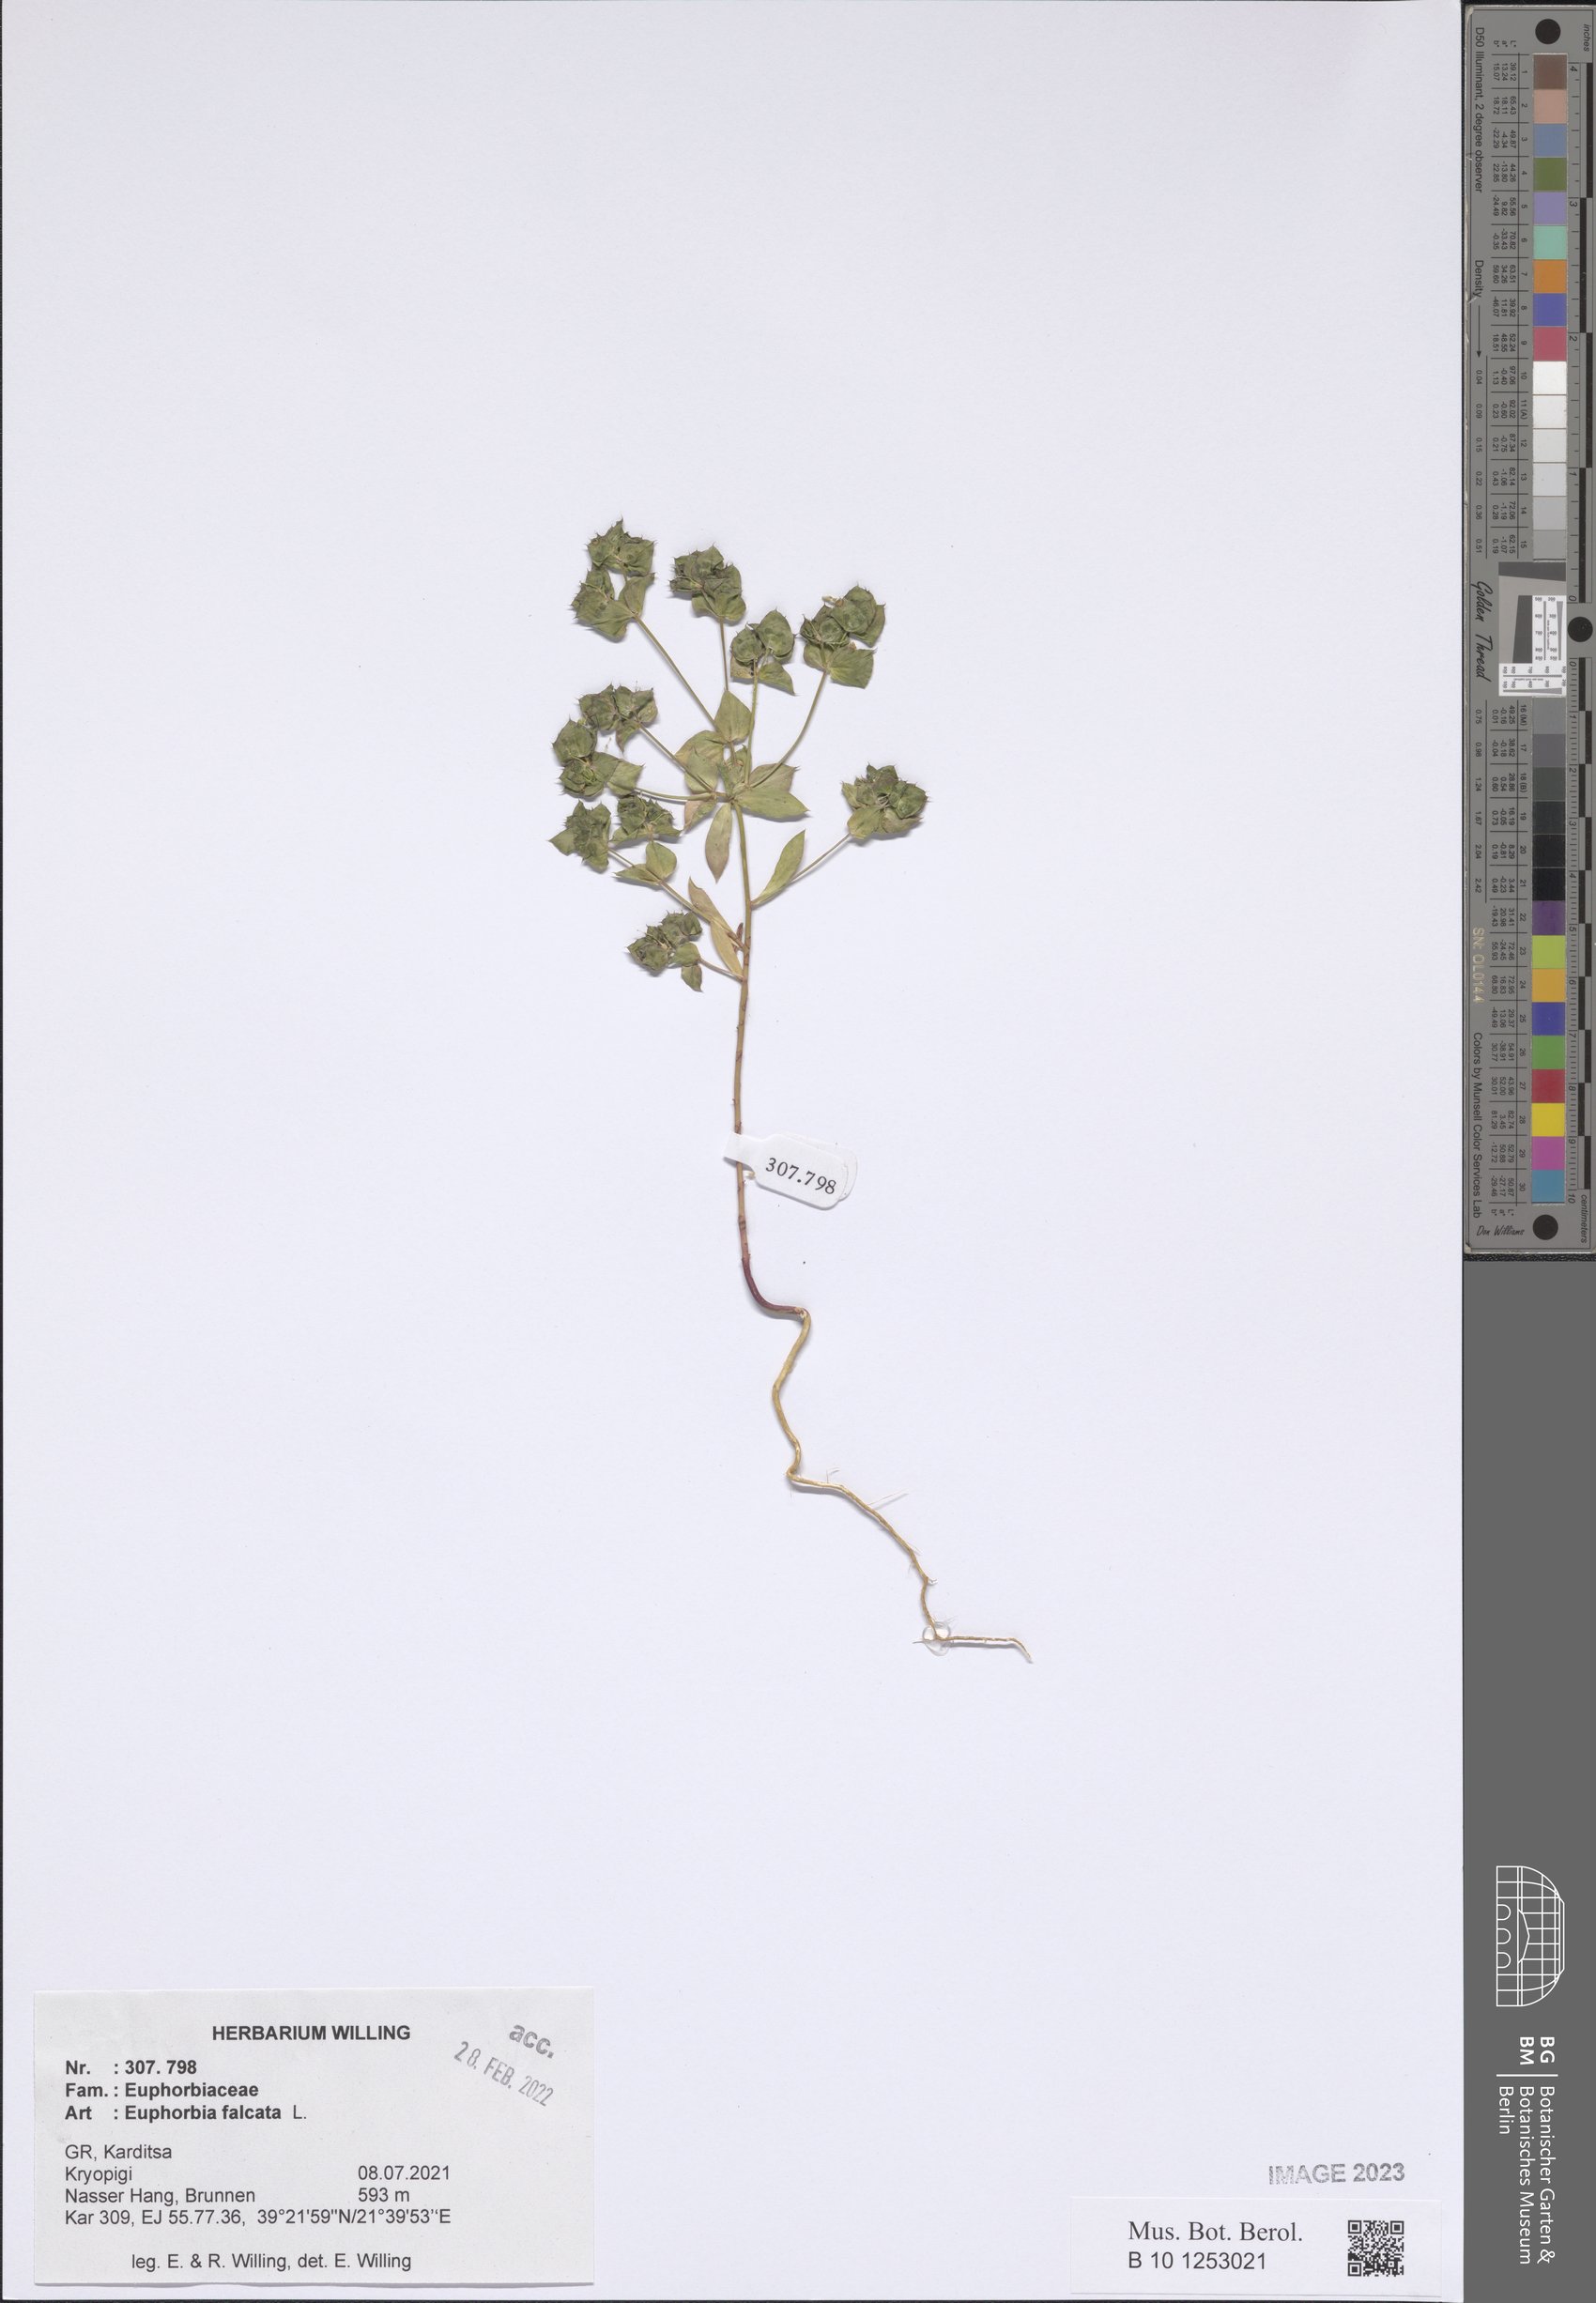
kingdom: Plantae
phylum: Tracheophyta
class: Magnoliopsida
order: Malpighiales
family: Euphorbiaceae
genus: Euphorbia
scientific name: Euphorbia falcata
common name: Sickle spurge
